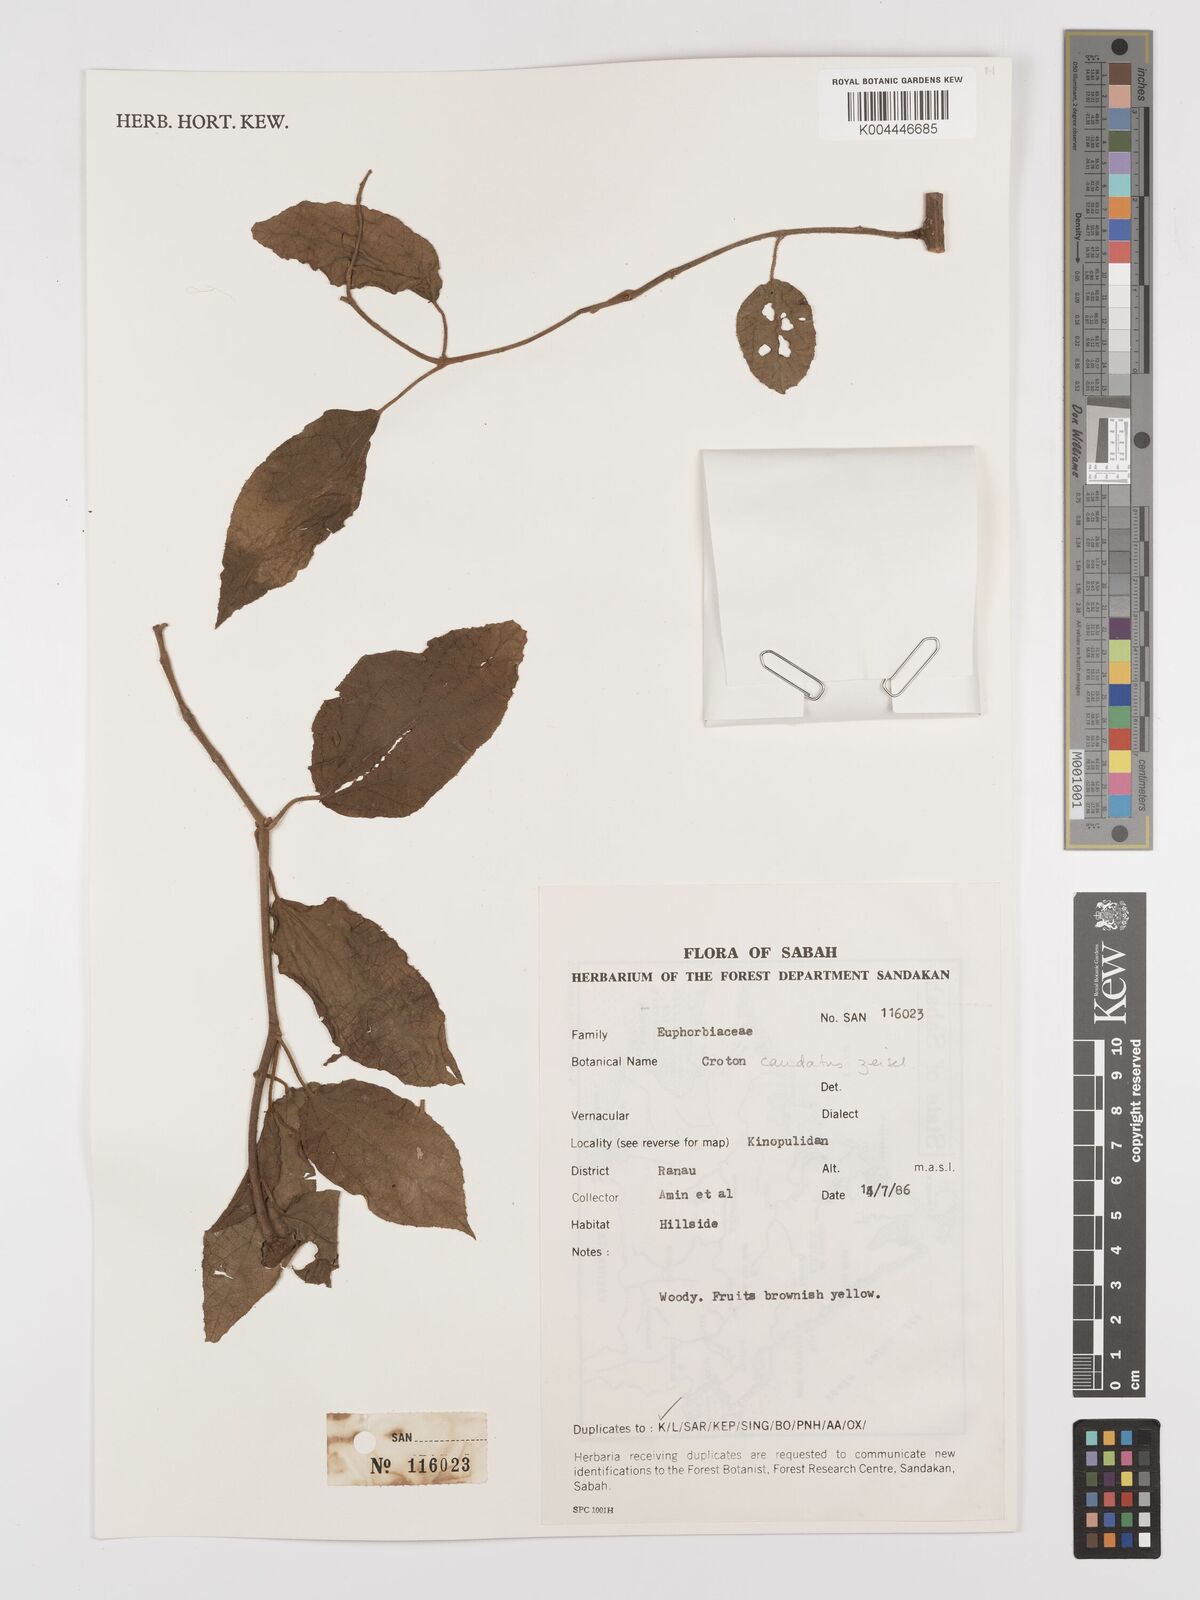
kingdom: Plantae
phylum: Tracheophyta
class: Magnoliopsida
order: Malpighiales
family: Euphorbiaceae
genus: Croton
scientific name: Croton caudatus
